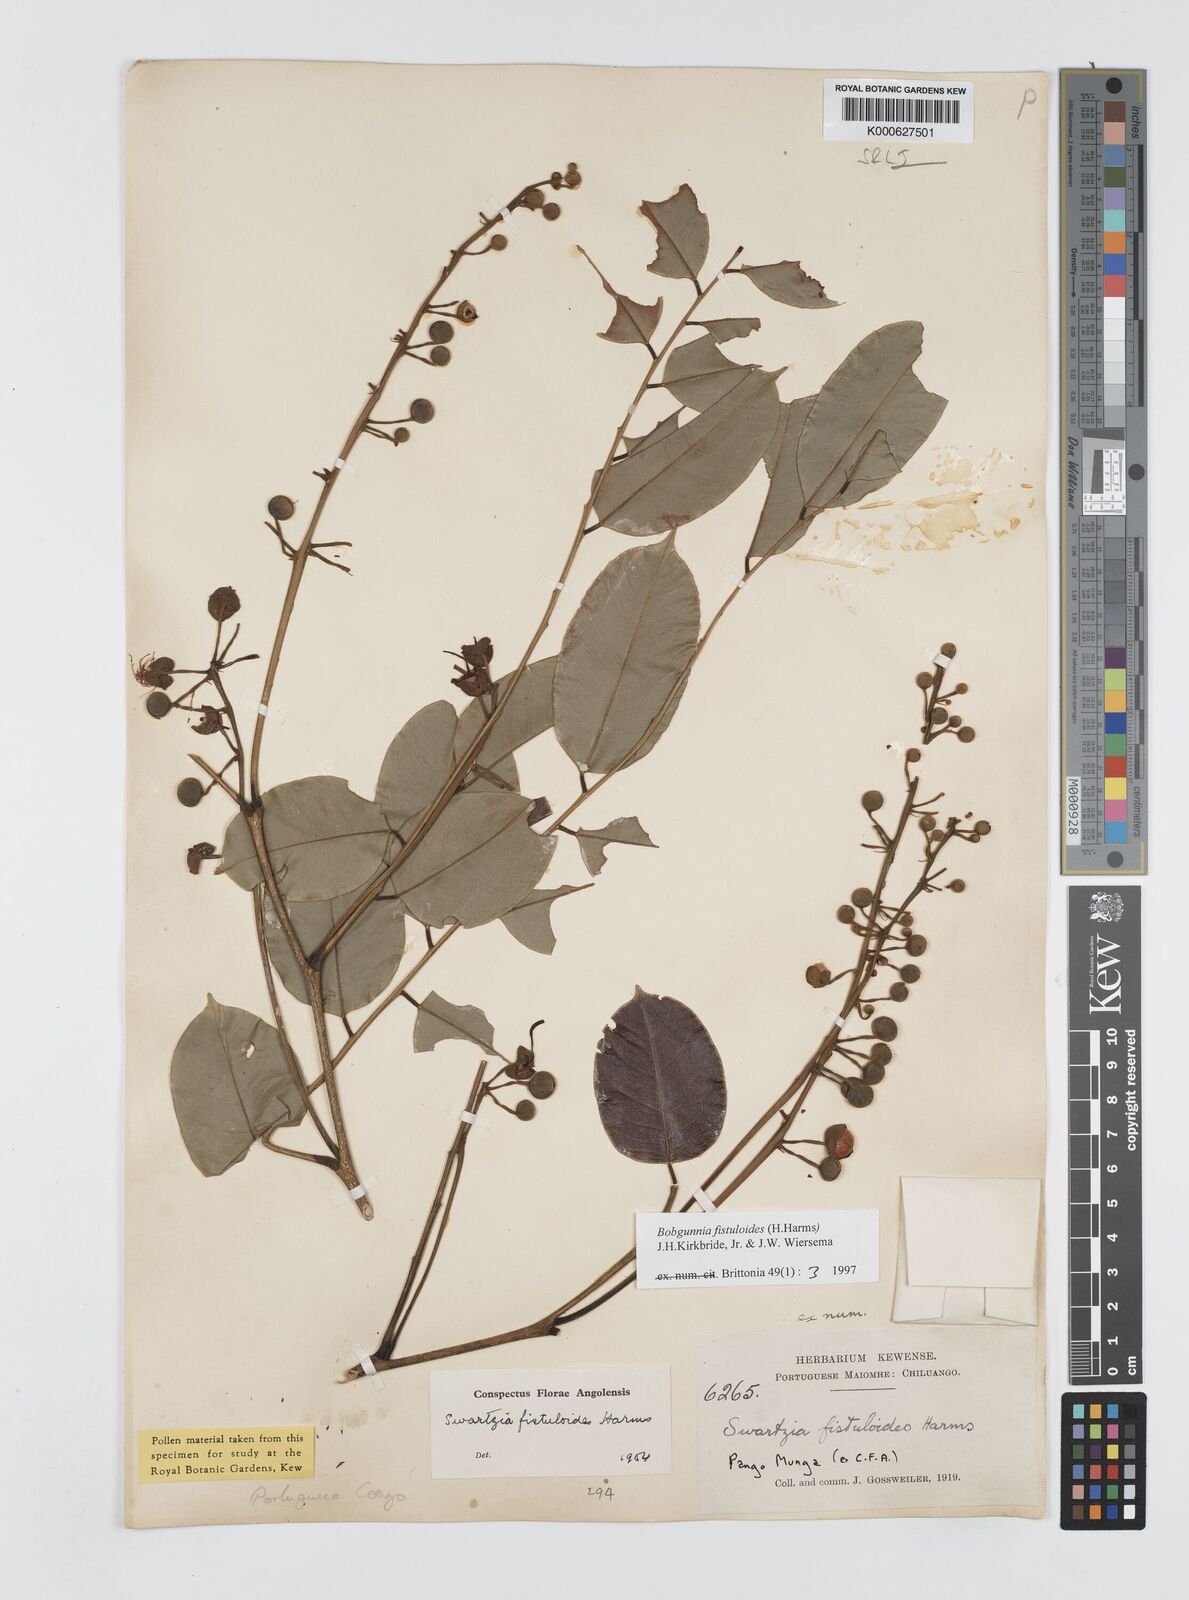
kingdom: Plantae
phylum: Tracheophyta
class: Magnoliopsida
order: Fabales
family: Fabaceae
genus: Bobgunnia
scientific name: Bobgunnia fistuloides
